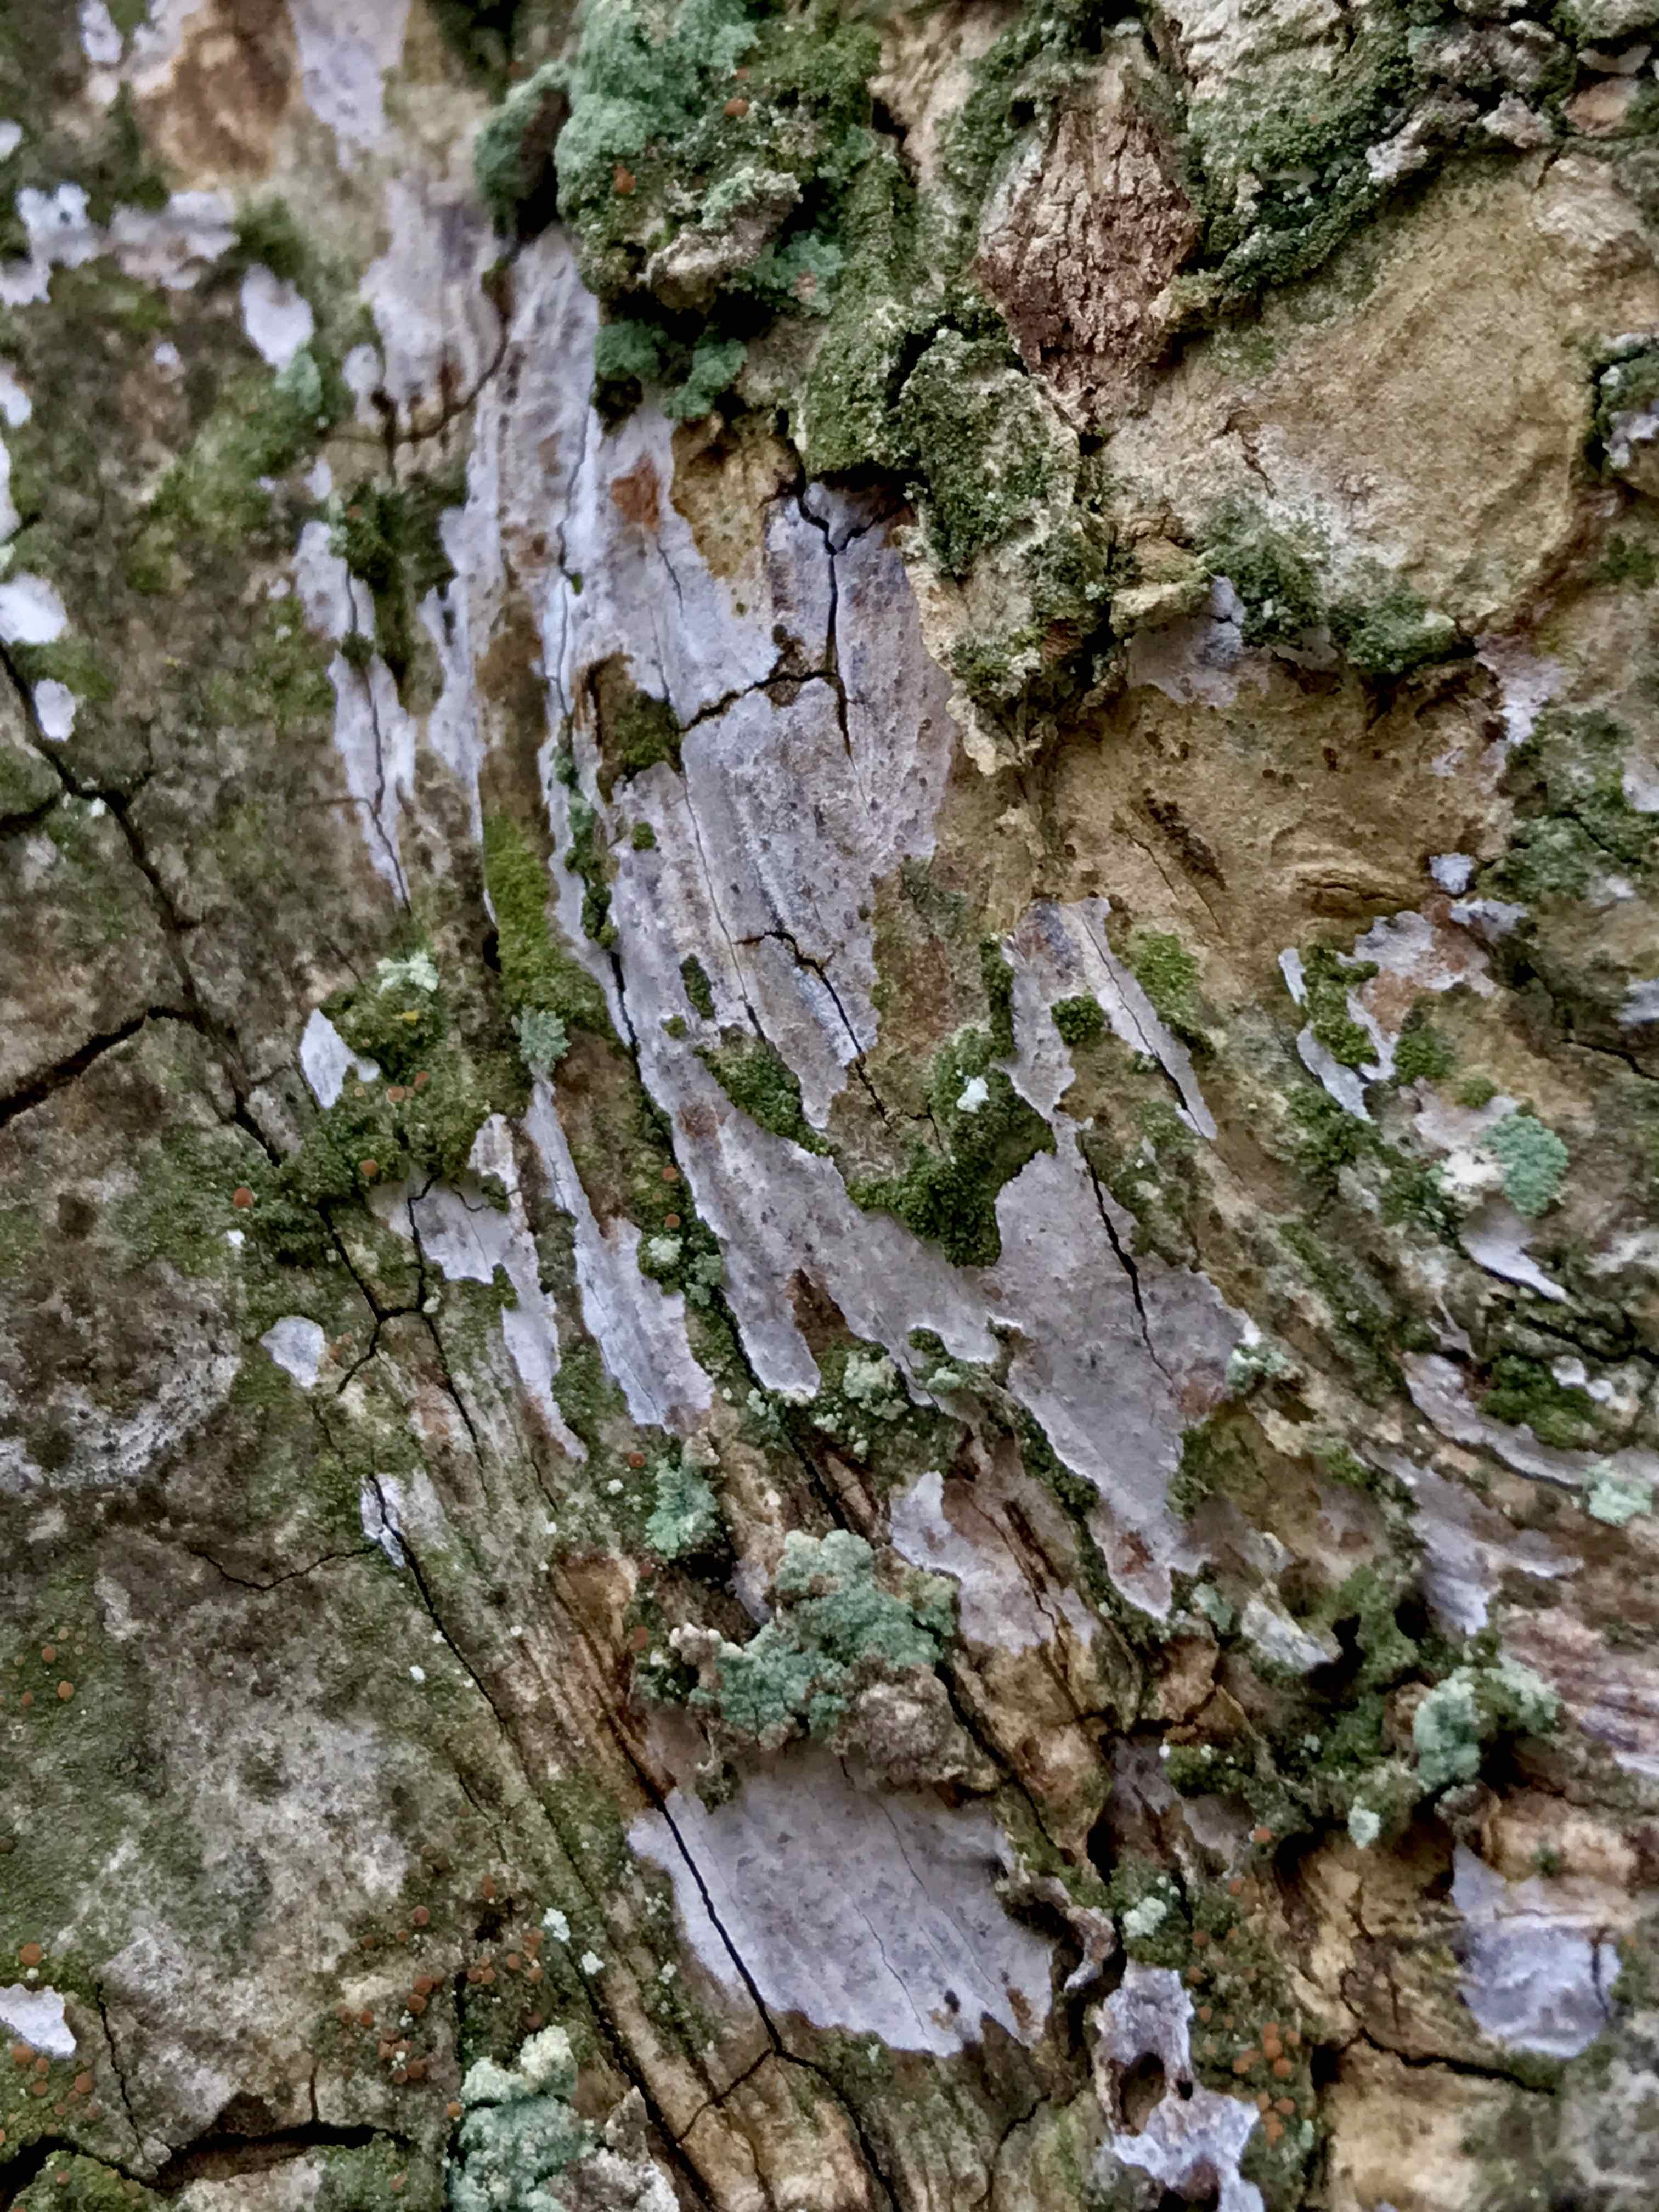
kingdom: Fungi
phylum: Basidiomycota
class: Agaricomycetes
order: Agaricales
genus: Dendrothele
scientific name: Dendrothele acerina
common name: navr-kalkplet
